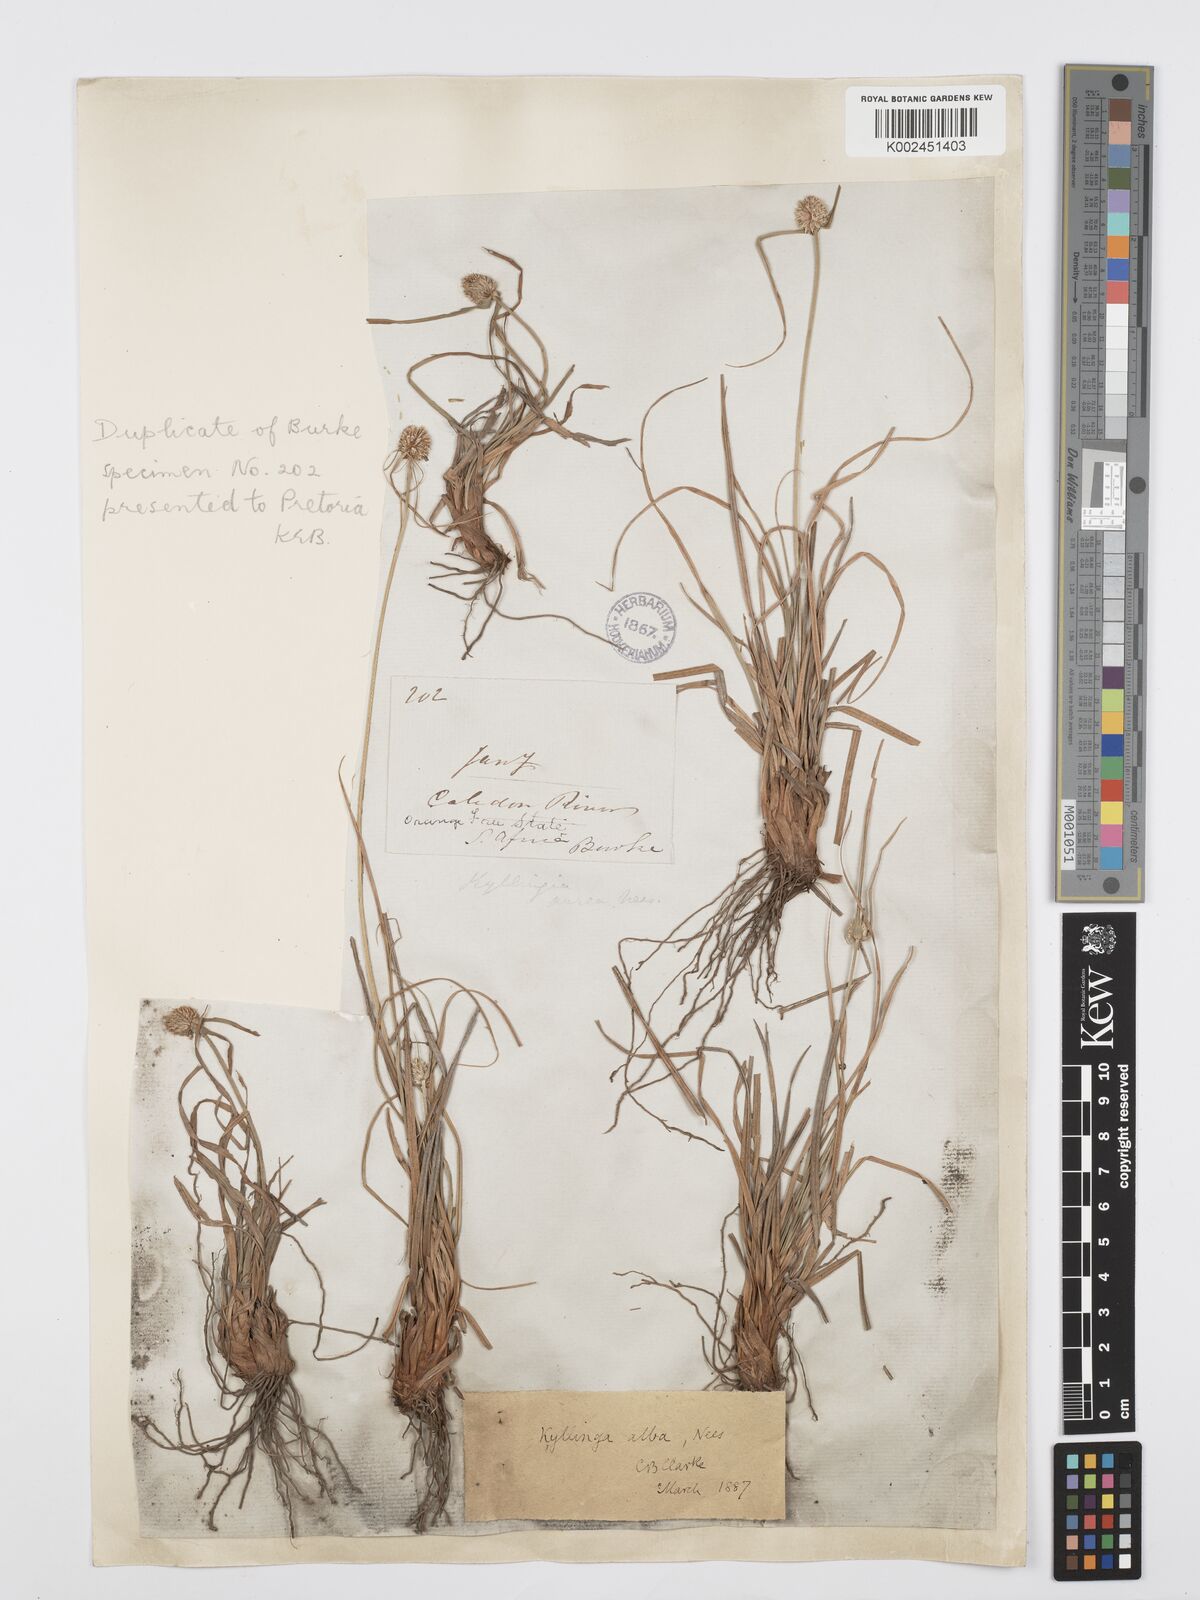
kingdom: Plantae
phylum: Tracheophyta
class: Liliopsida
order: Poales
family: Cyperaceae
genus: Cyperus
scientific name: Cyperus alatus
